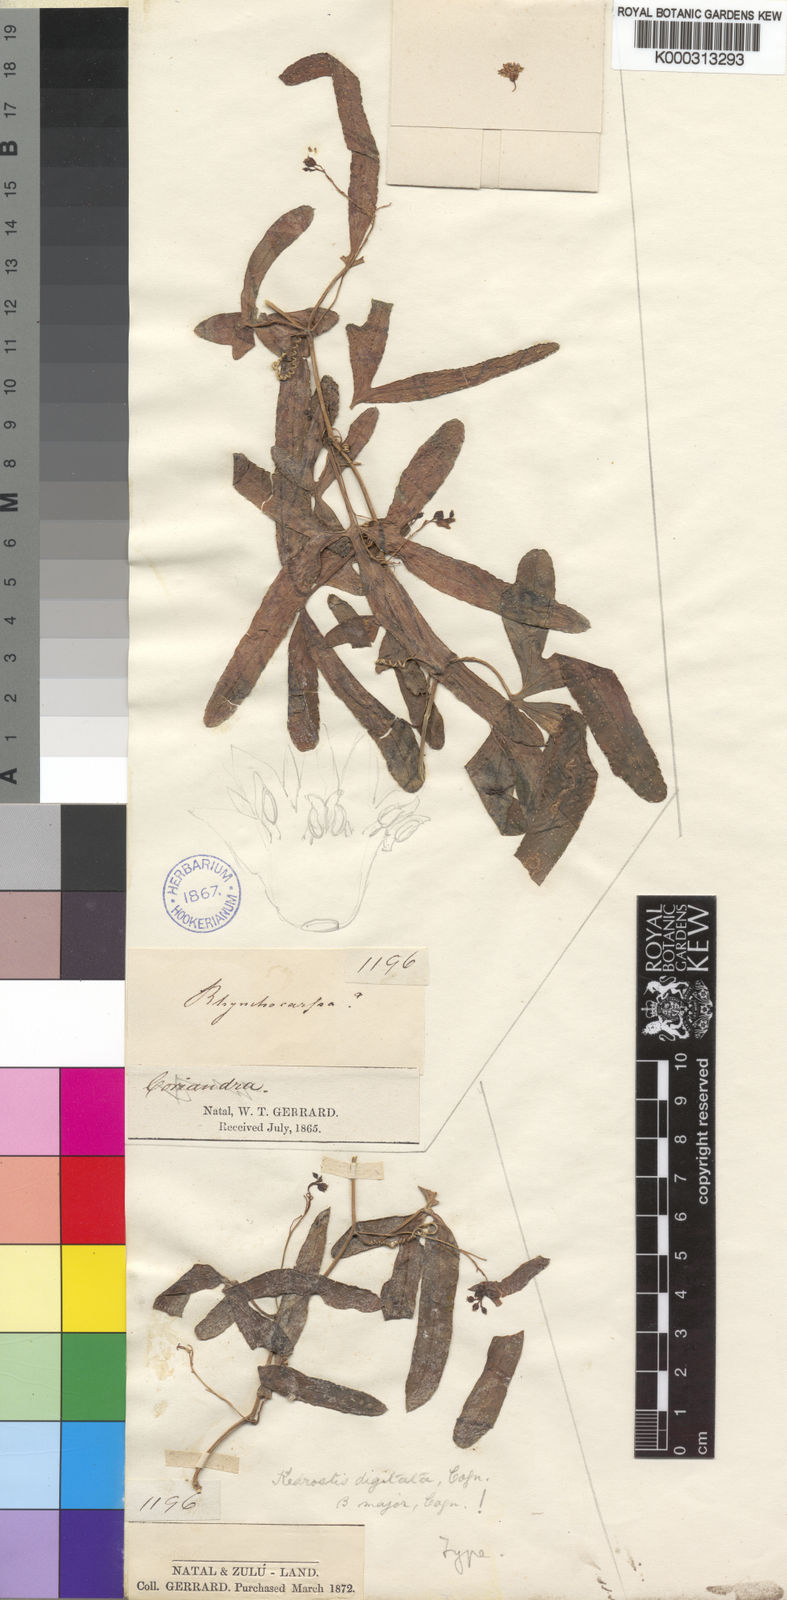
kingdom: Plantae
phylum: Tracheophyta
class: Magnoliopsida
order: Cucurbitales
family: Cucurbitaceae
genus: Kedrostis
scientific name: Kedrostis africana
